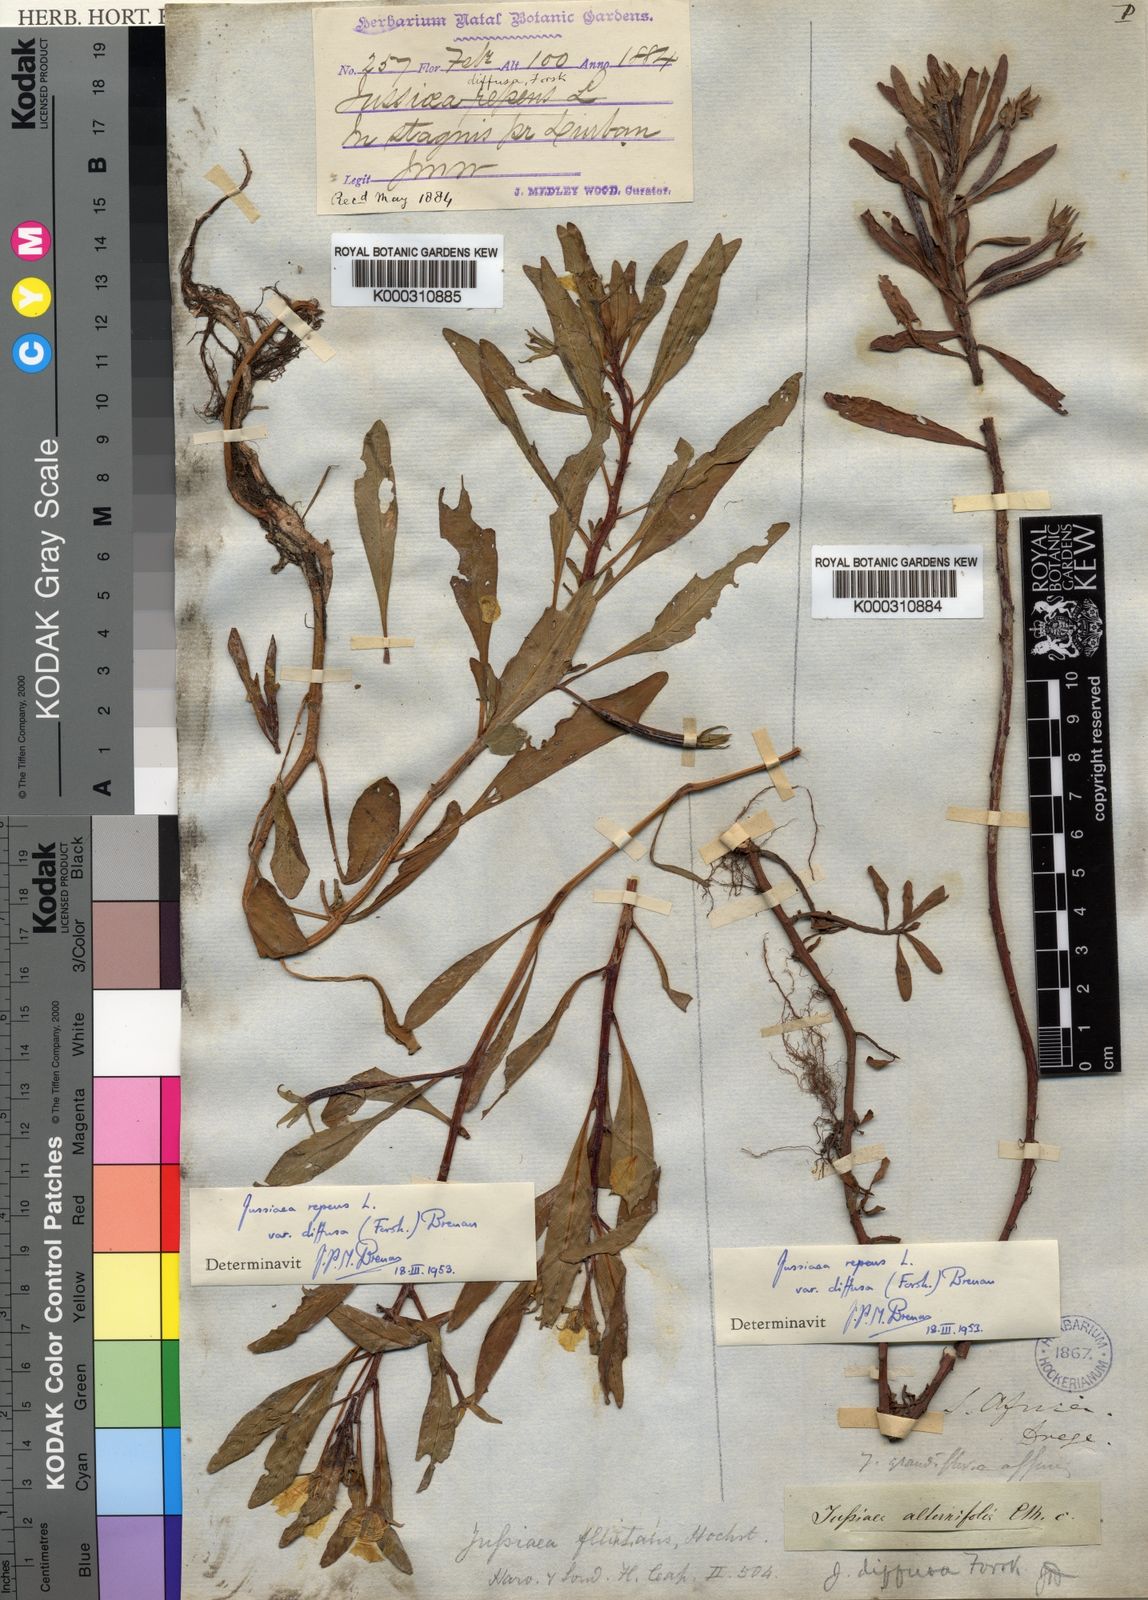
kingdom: Plantae
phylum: Tracheophyta
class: Magnoliopsida
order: Myrtales
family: Onagraceae
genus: Ludwigia
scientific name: Ludwigia adscendens
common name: Creeping water primrose
